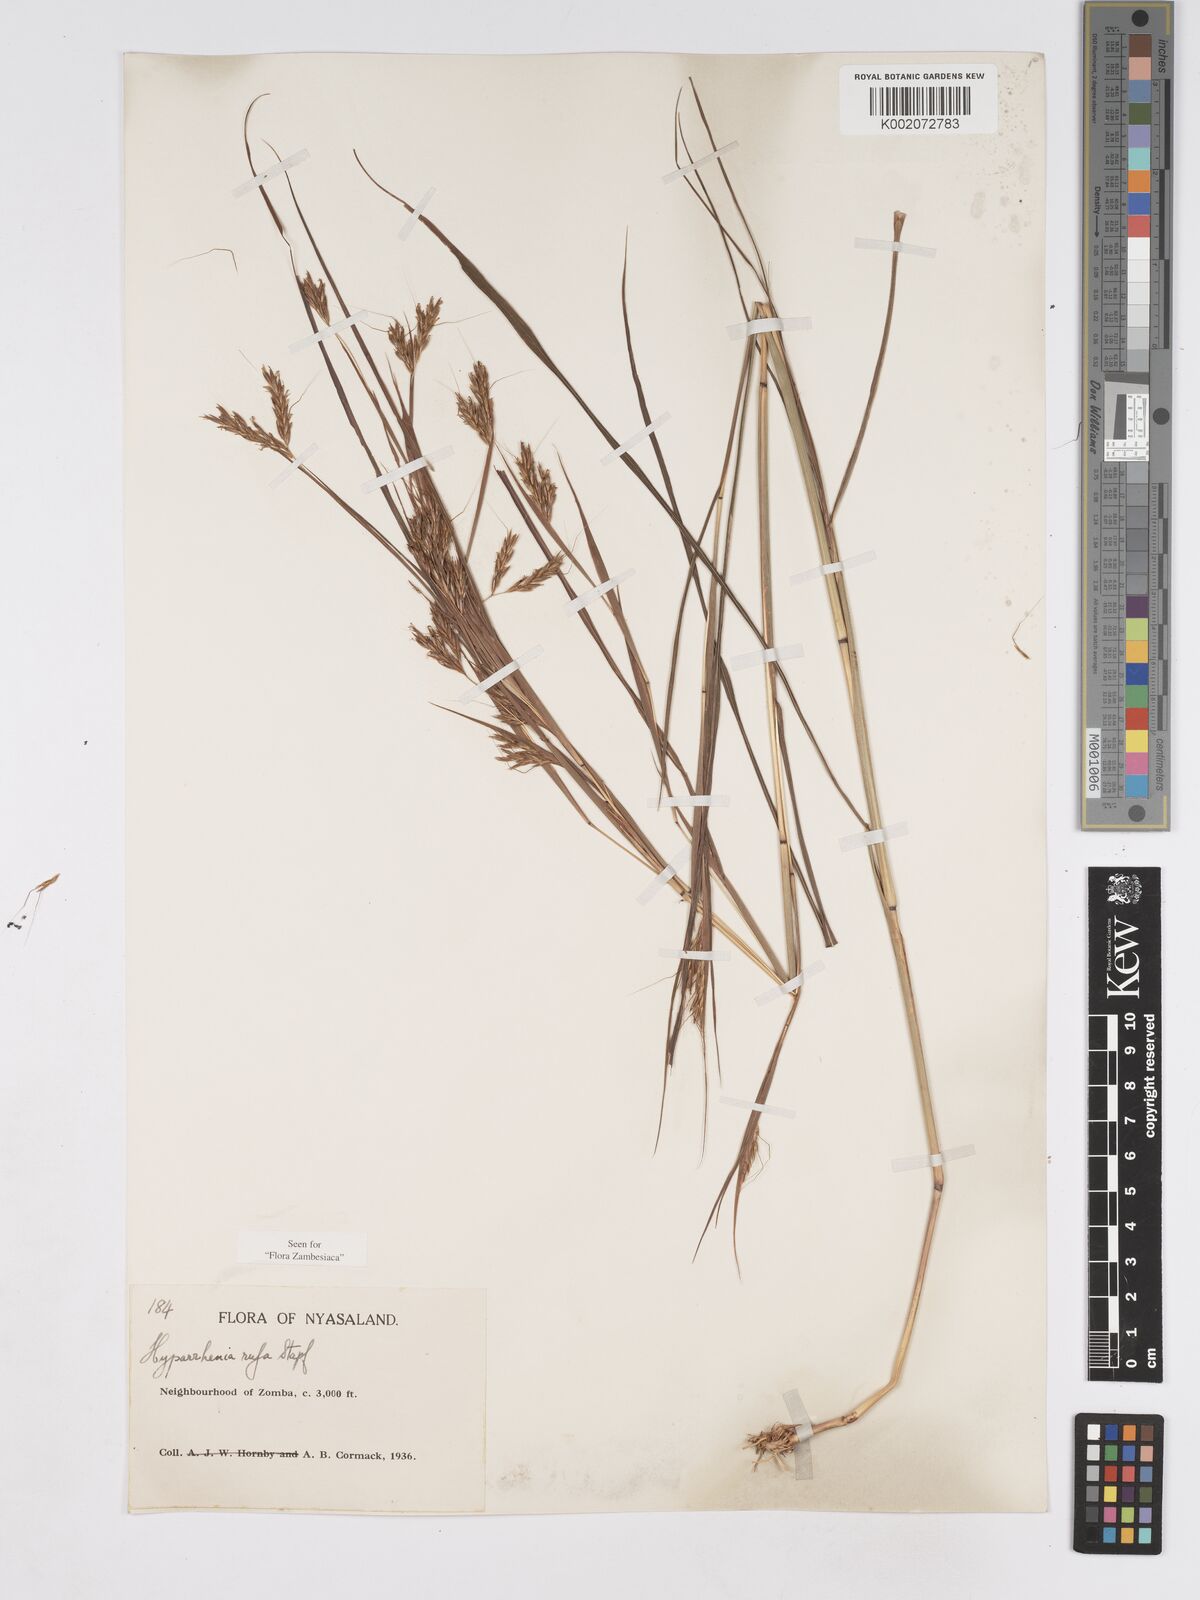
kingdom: Plantae
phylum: Tracheophyta
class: Liliopsida
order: Poales
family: Poaceae
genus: Hyparrhenia
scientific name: Hyparrhenia rufa
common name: Jaraguagrass
